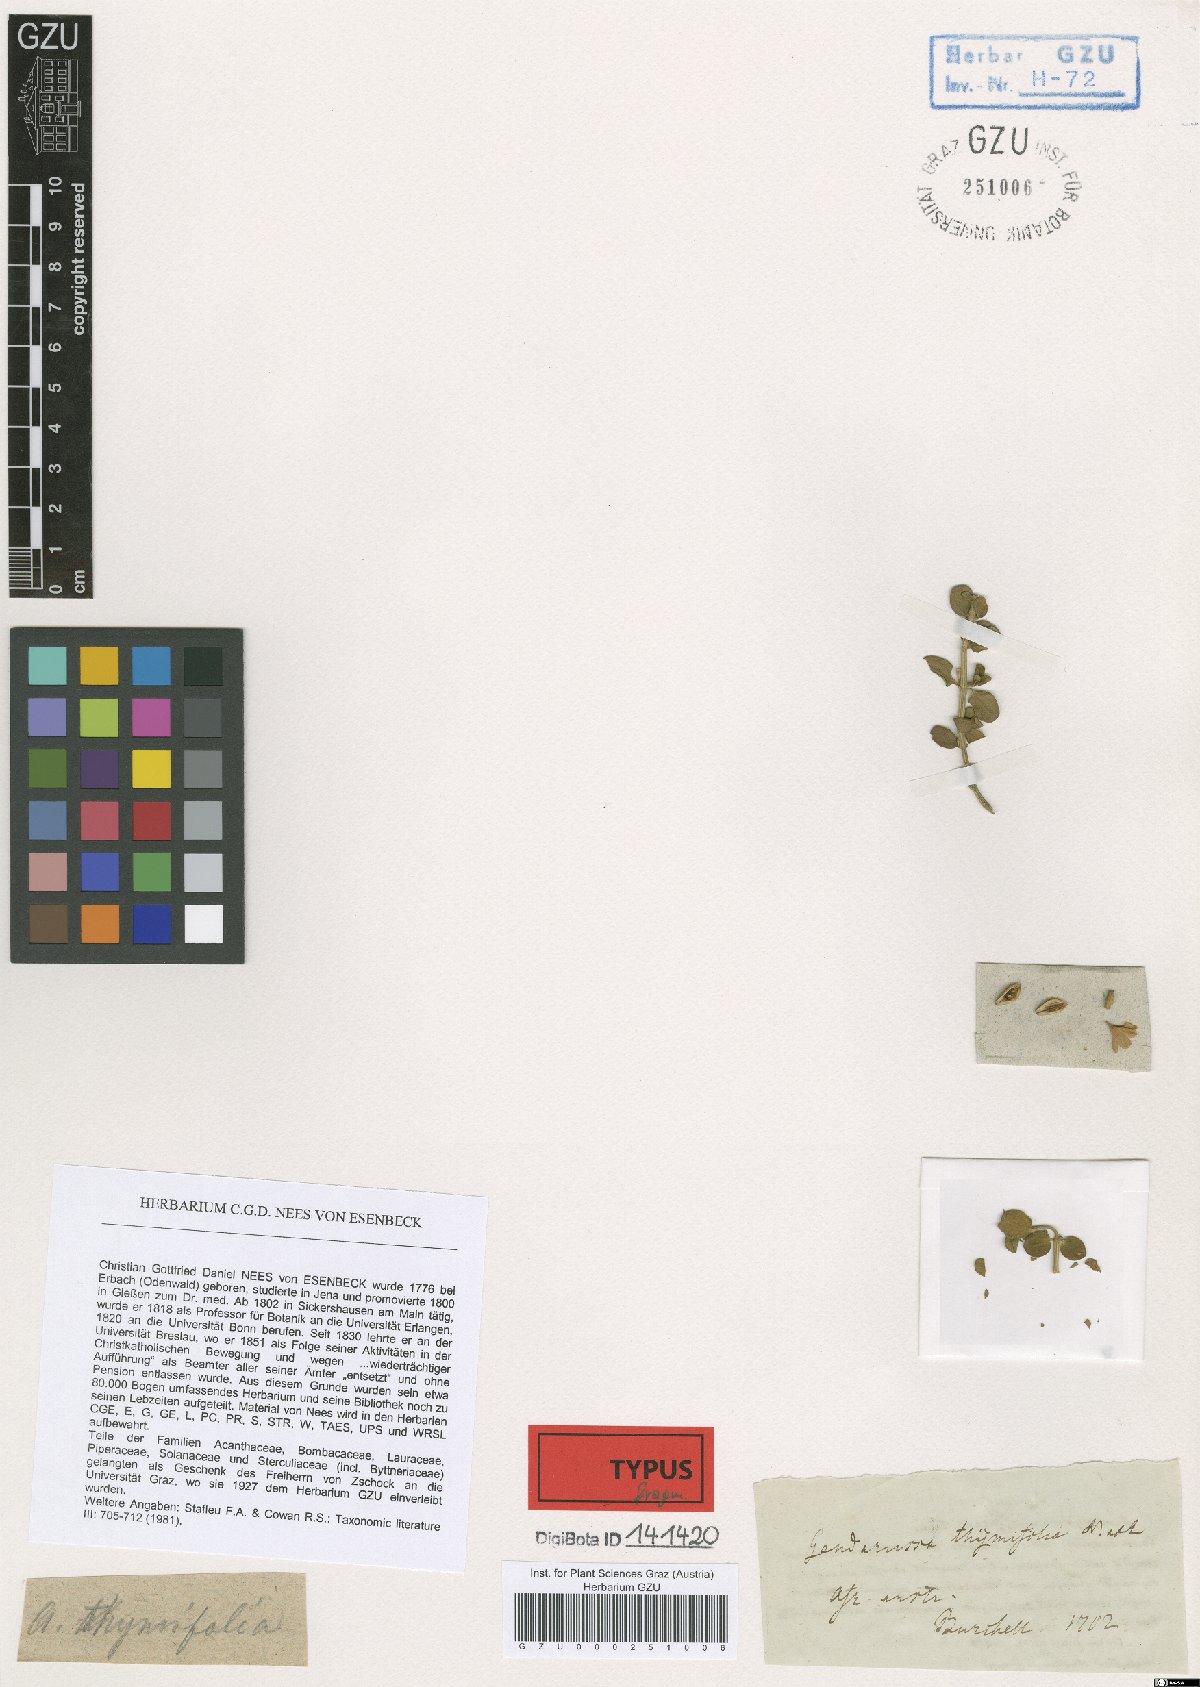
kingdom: Plantae
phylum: Tracheophyta
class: Magnoliopsida
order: Lamiales
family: Acanthaceae
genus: Justicia
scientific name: Justicia thymifolia
